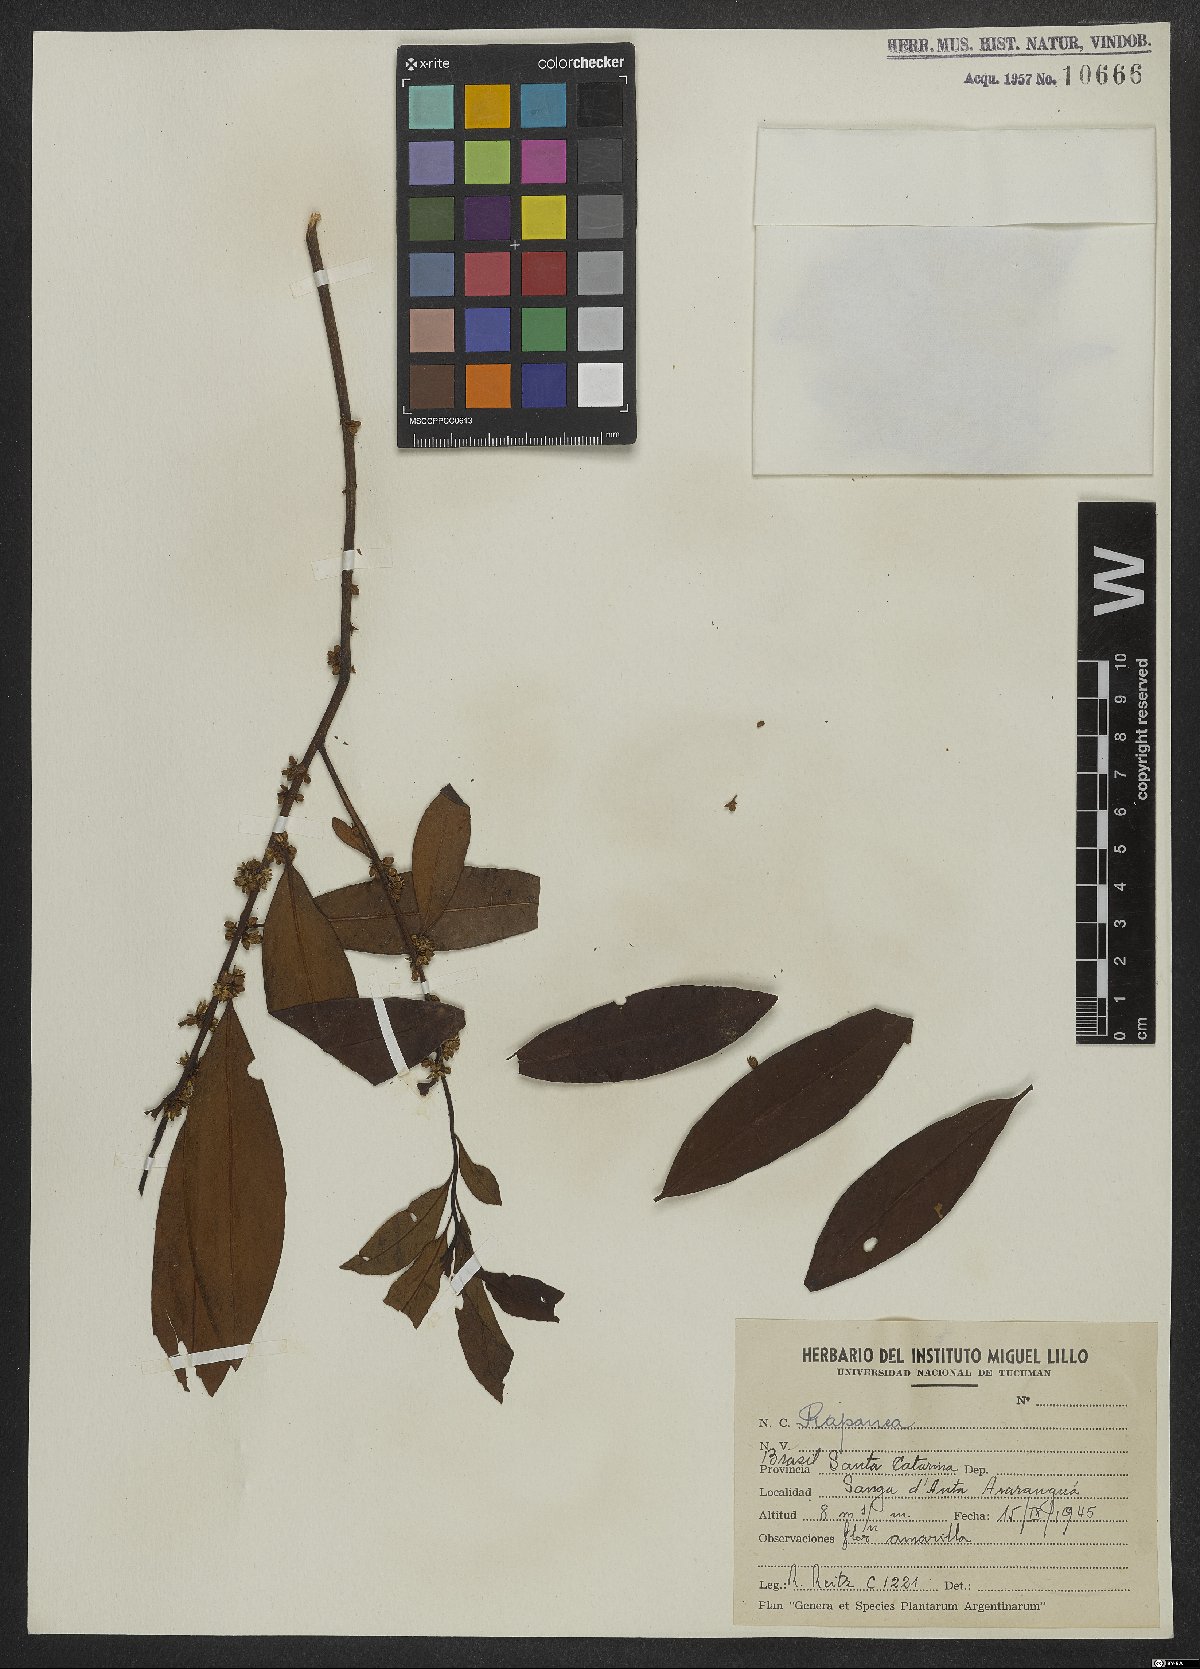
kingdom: Plantae
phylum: Tracheophyta
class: Magnoliopsida
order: Ericales
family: Primulaceae
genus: Myrsine
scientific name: Myrsine
